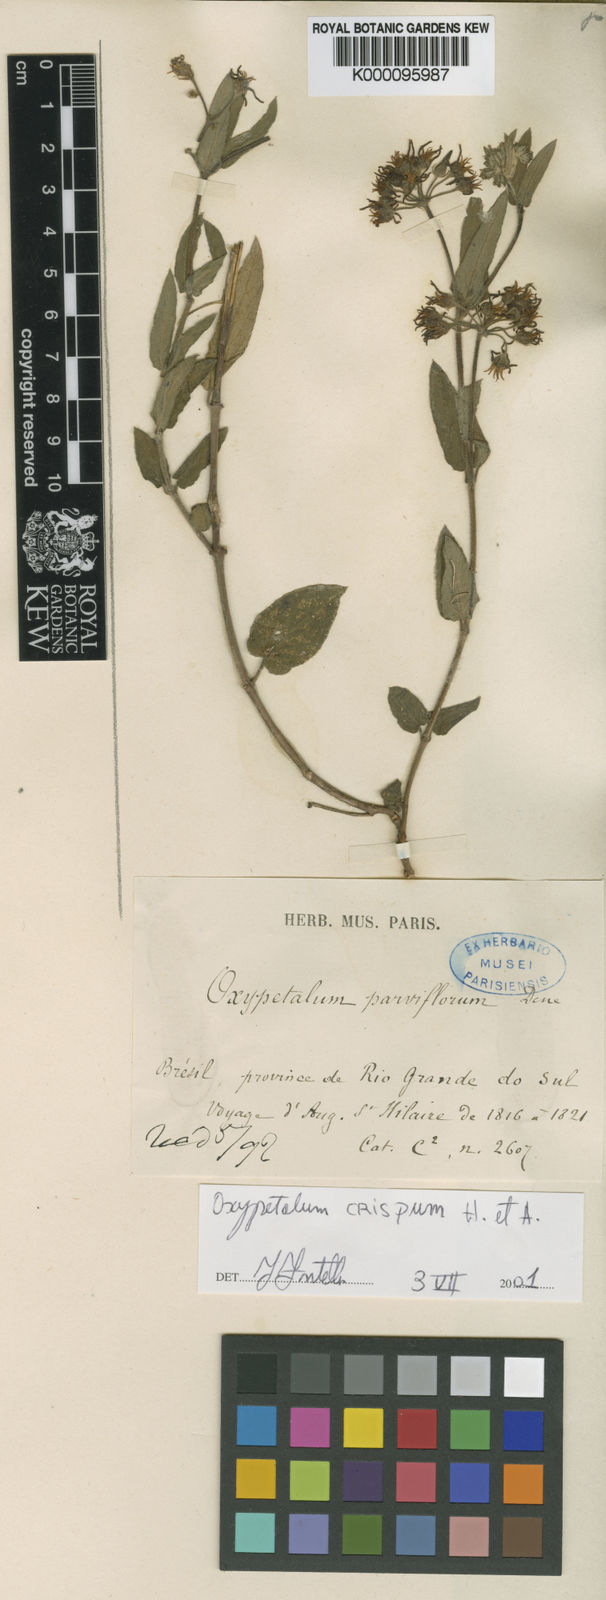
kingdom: Plantae
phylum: Tracheophyta
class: Magnoliopsida
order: Gentianales
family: Apocynaceae
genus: Oxypetalum
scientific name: Oxypetalum crispum
